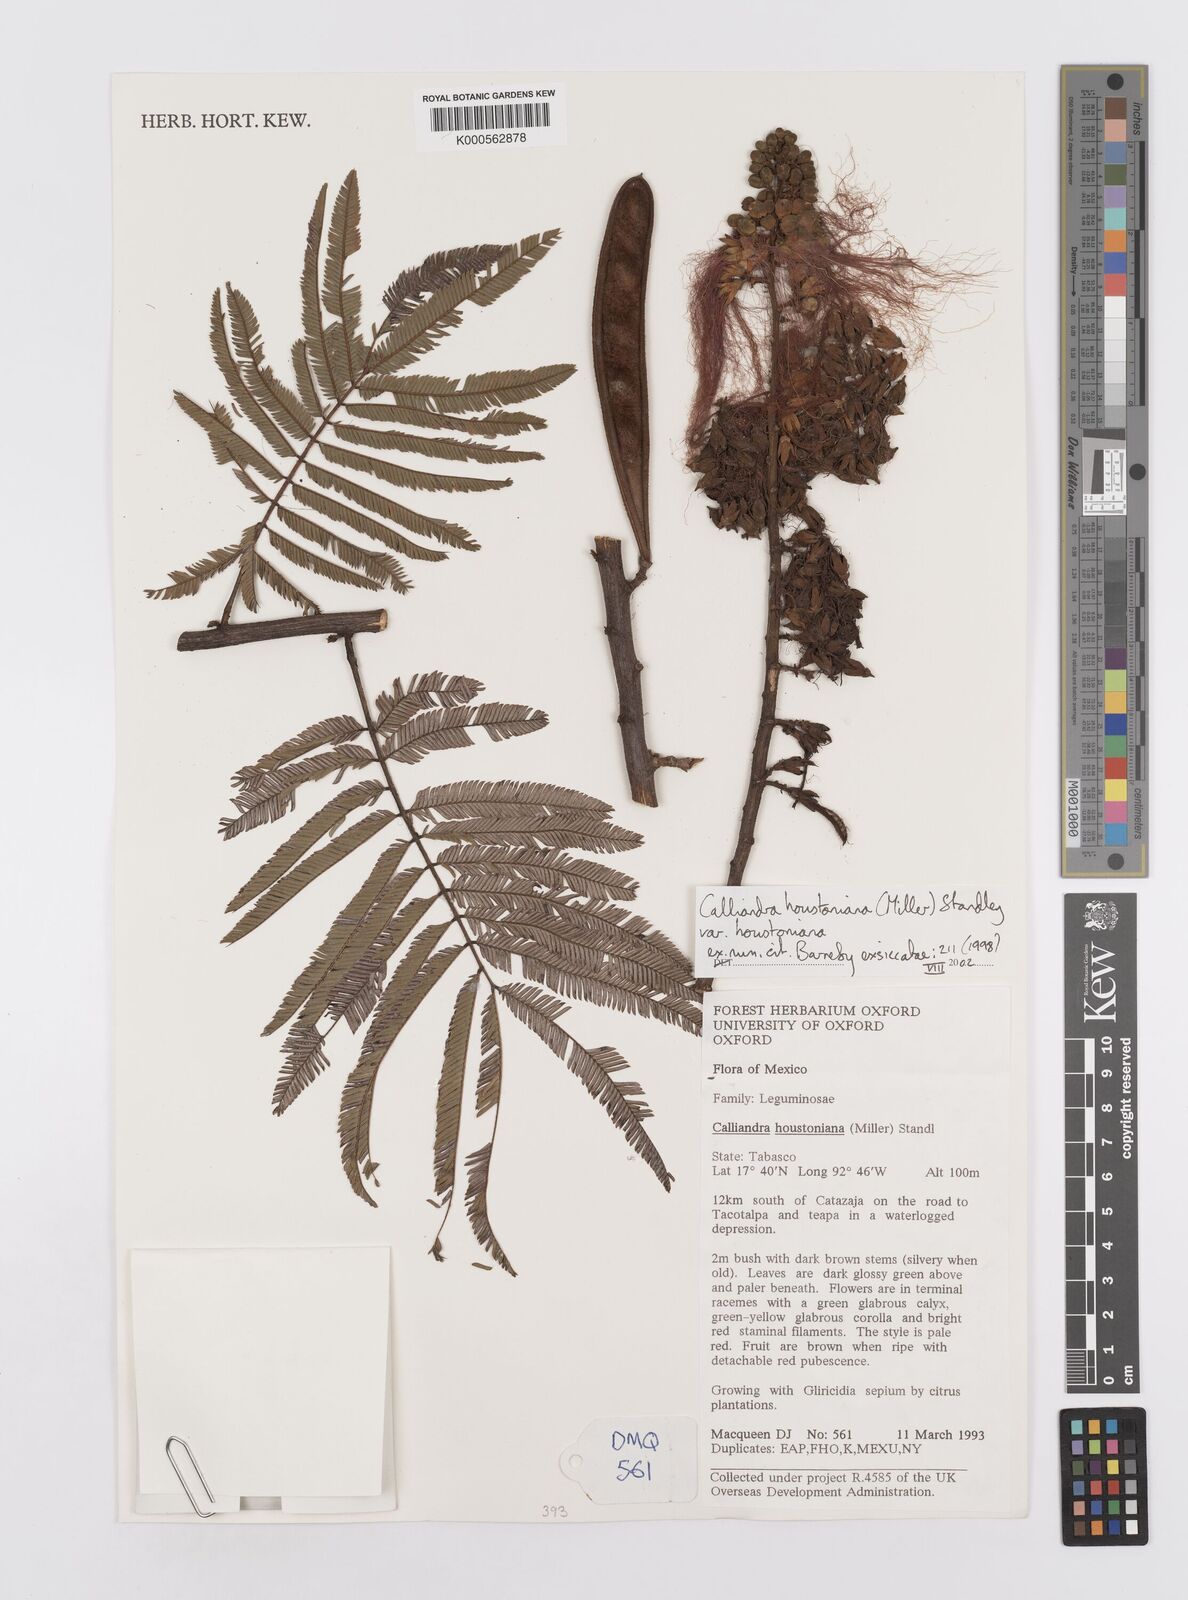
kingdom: Plantae
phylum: Tracheophyta
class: Magnoliopsida
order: Fabales
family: Fabaceae
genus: Calliandra
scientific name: Calliandra houstoniana
